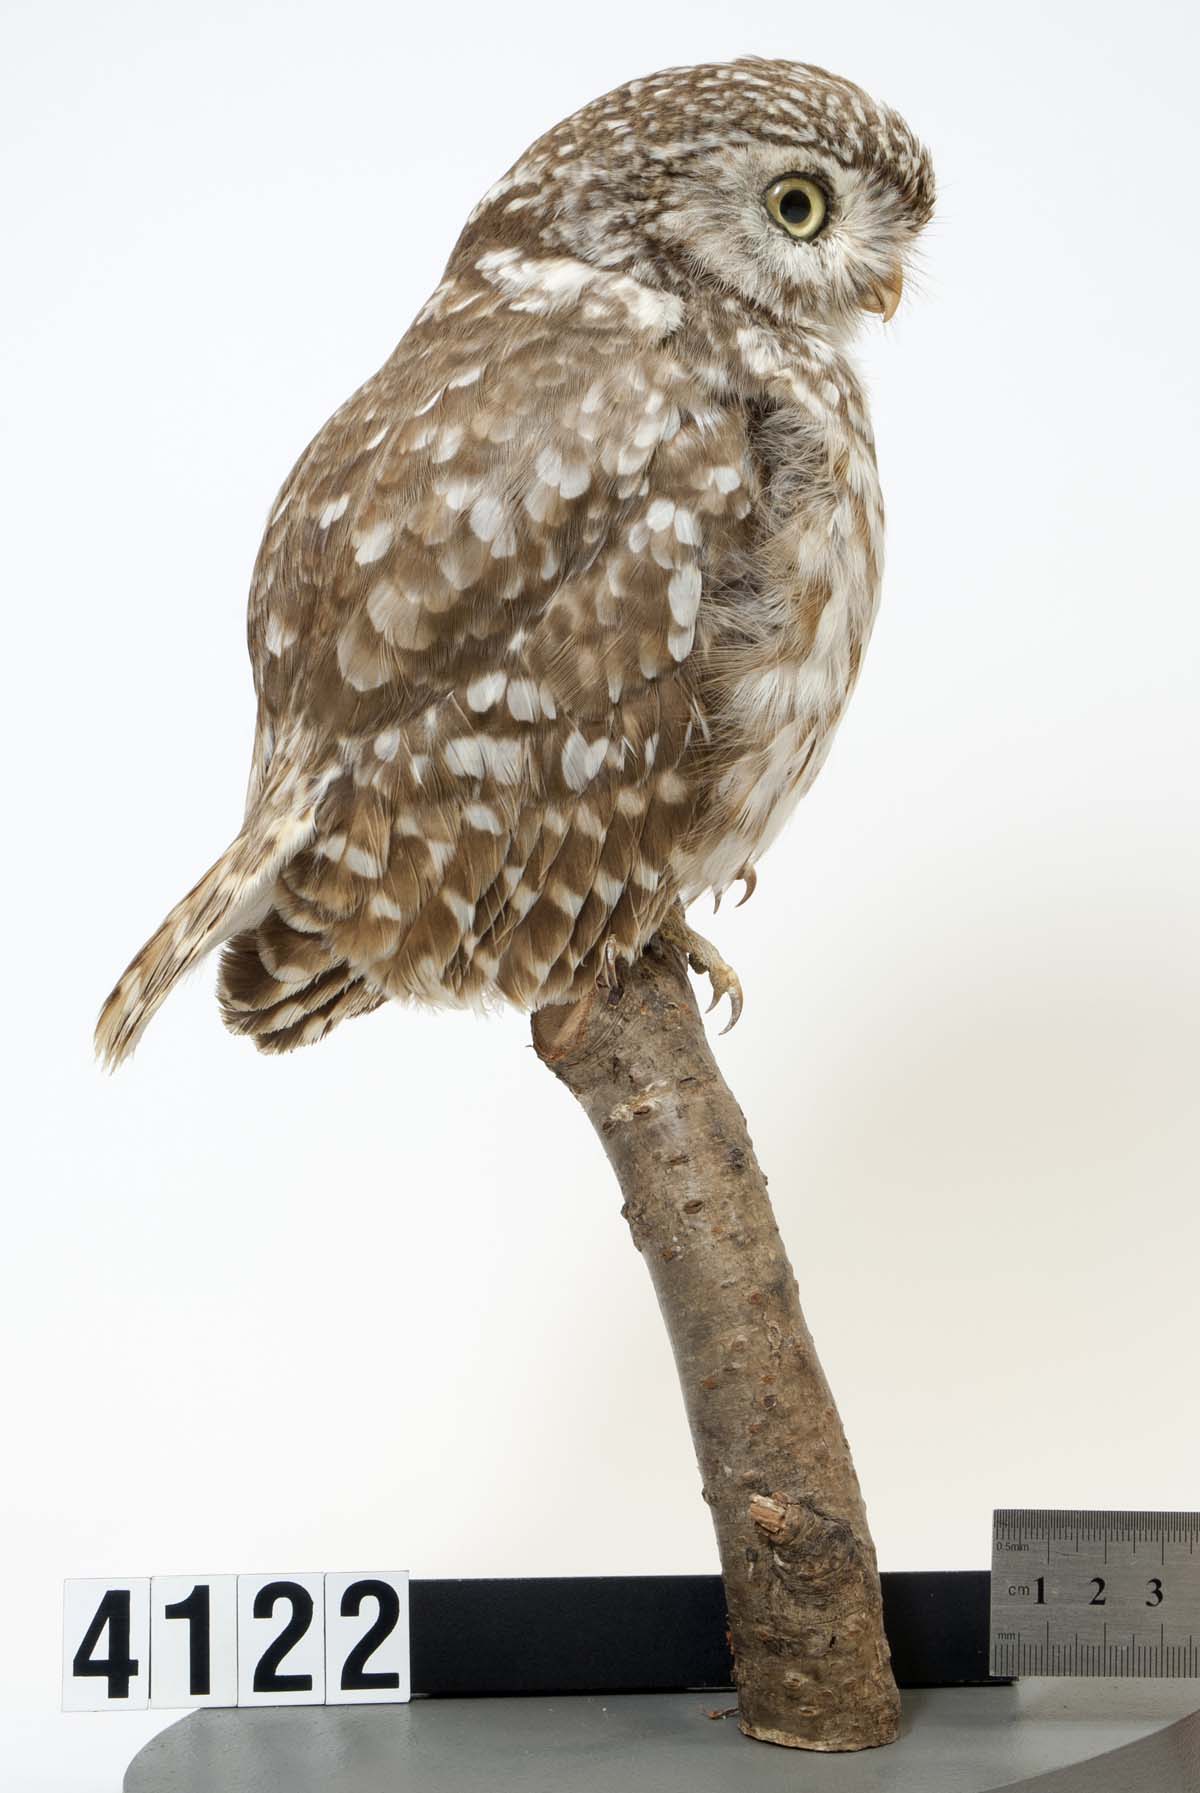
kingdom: Animalia
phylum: Chordata
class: Aves
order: Strigiformes
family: Strigidae
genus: Athene
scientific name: Athene noctua
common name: Little owl
